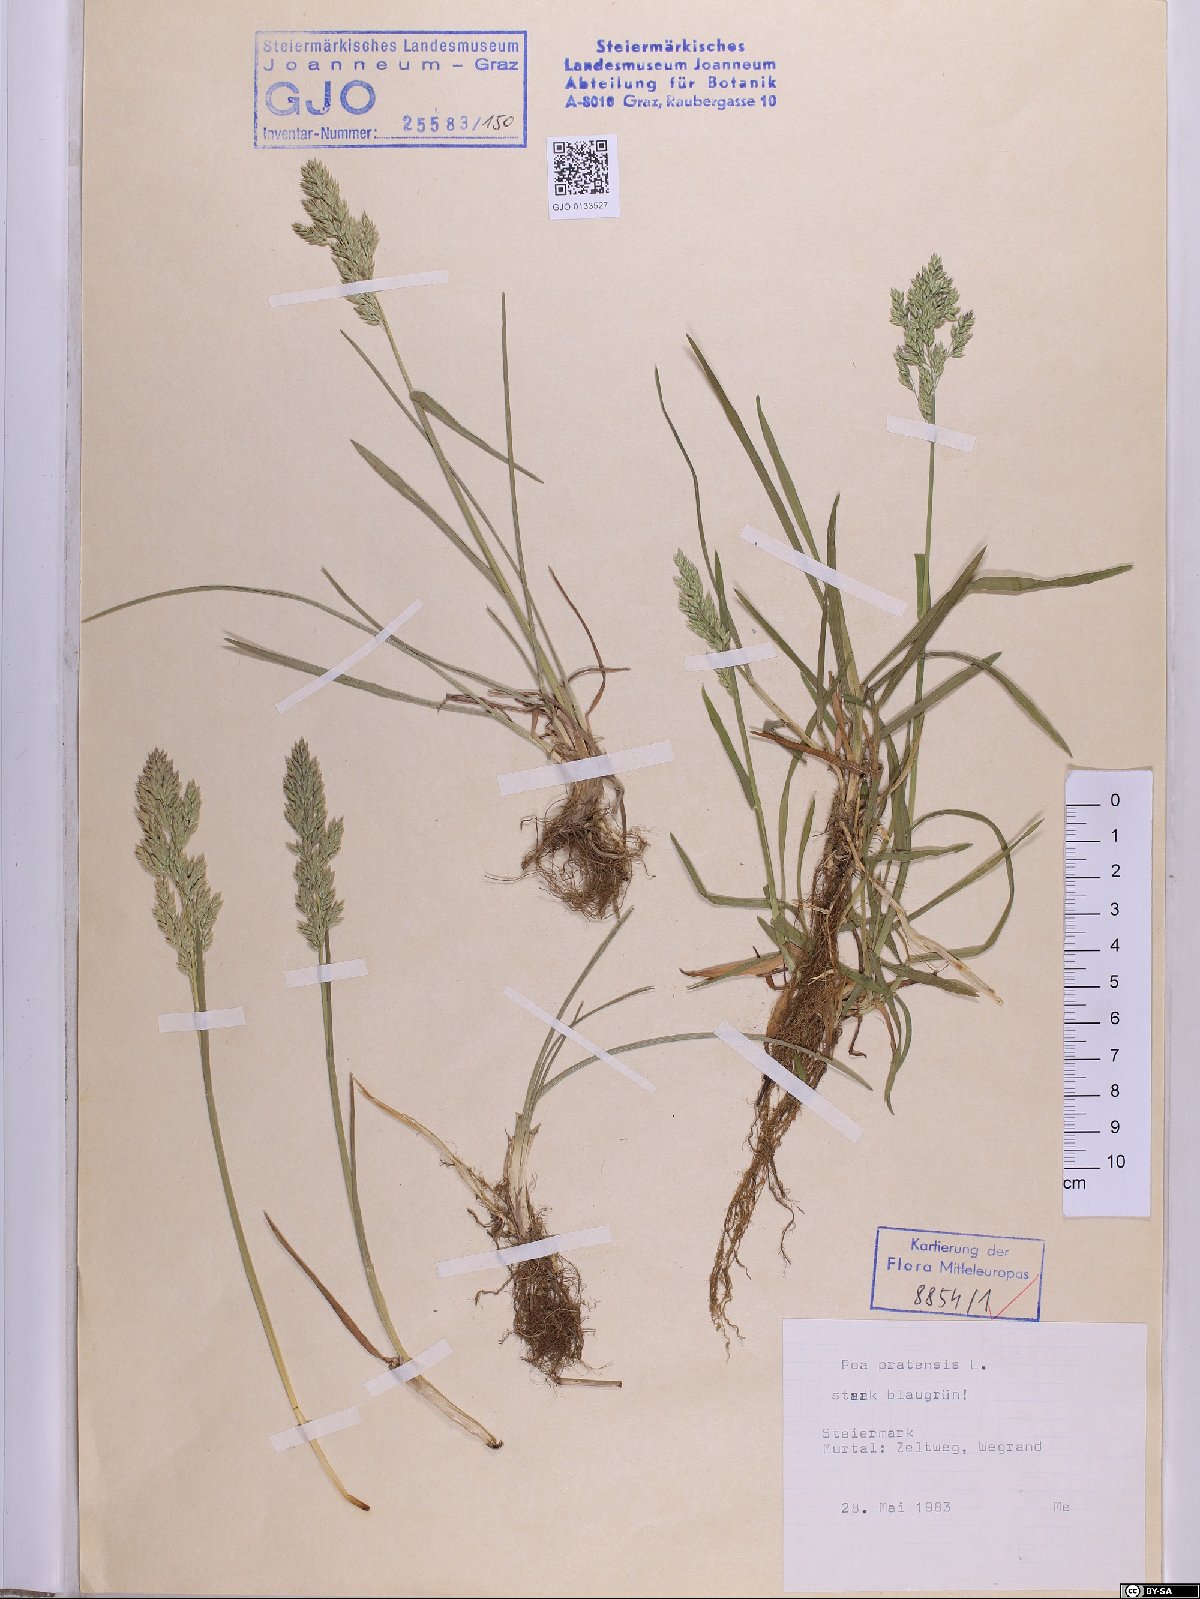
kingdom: Plantae
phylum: Tracheophyta
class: Liliopsida
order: Poales
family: Poaceae
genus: Poa
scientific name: Poa pratensis
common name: Kentucky bluegrass
